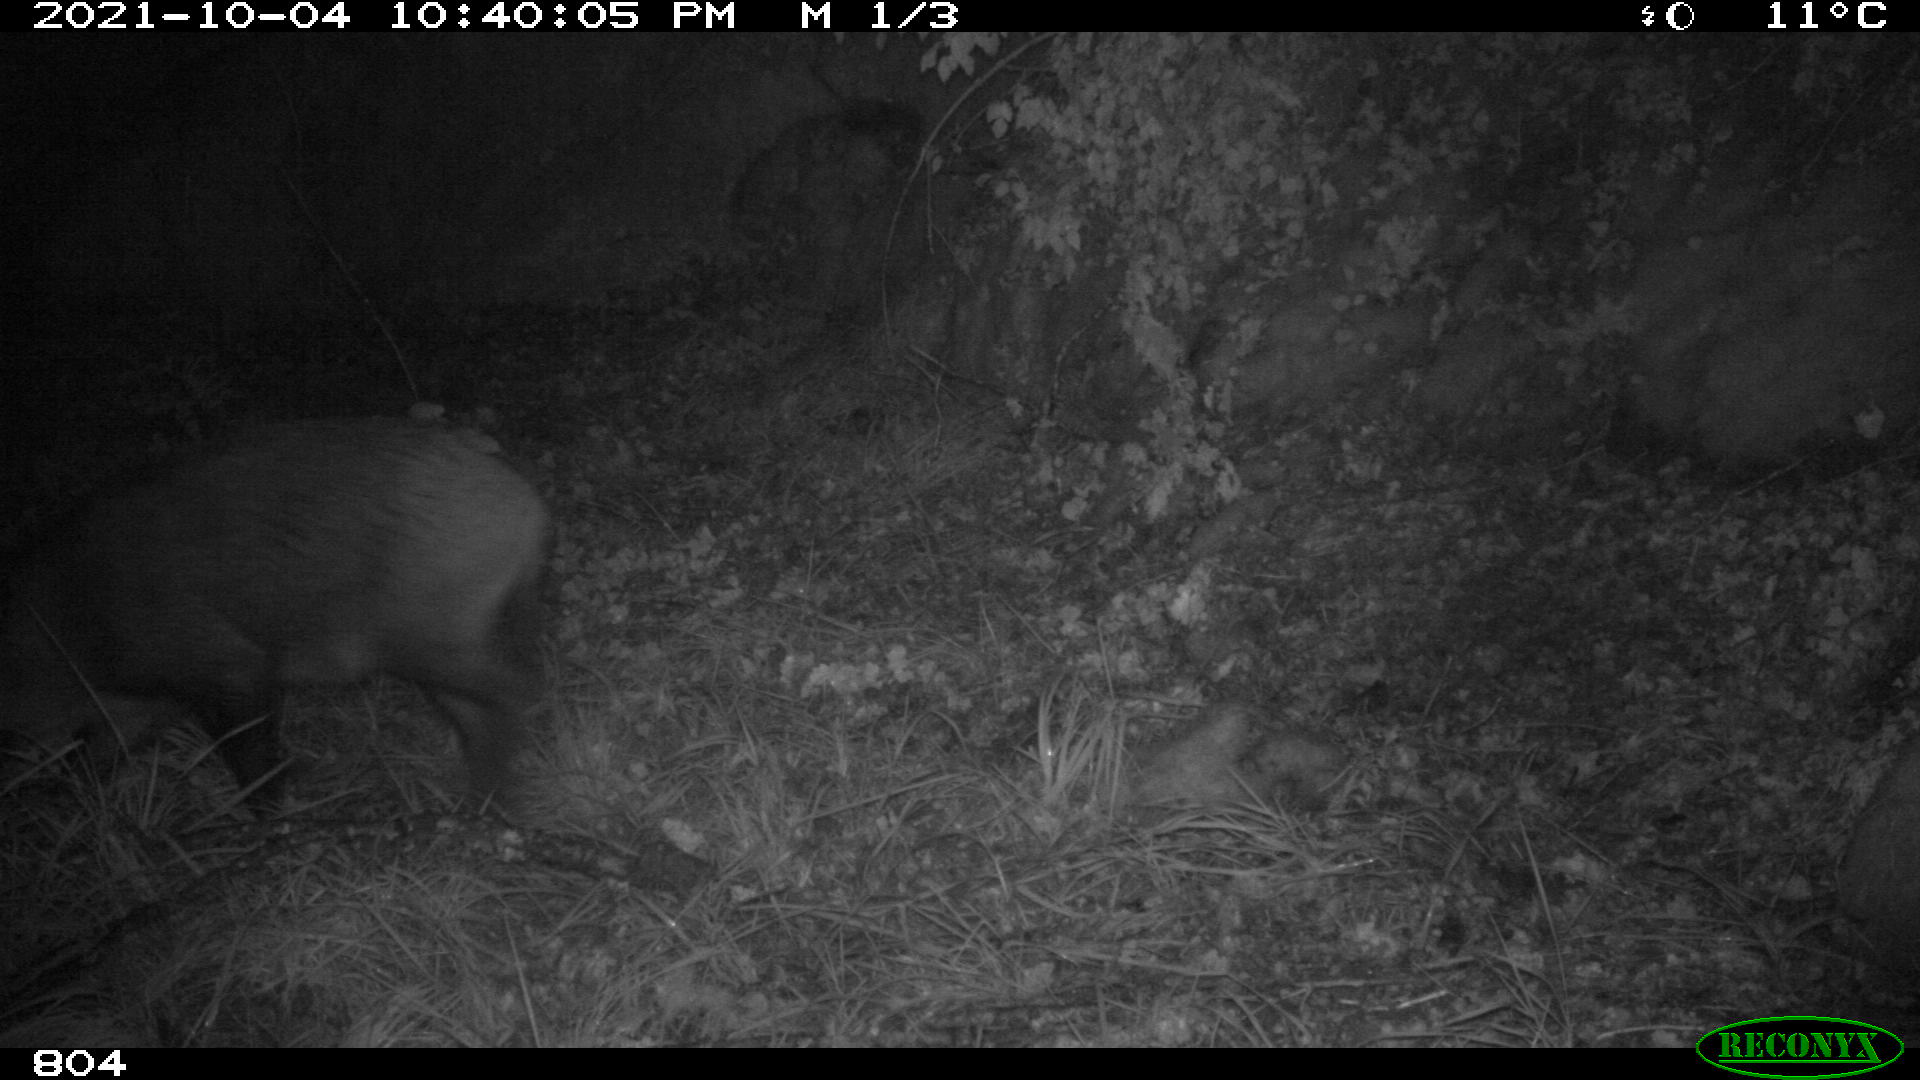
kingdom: Animalia
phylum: Chordata
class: Mammalia
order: Artiodactyla
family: Suidae
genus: Sus
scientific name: Sus scrofa
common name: Wild boar
